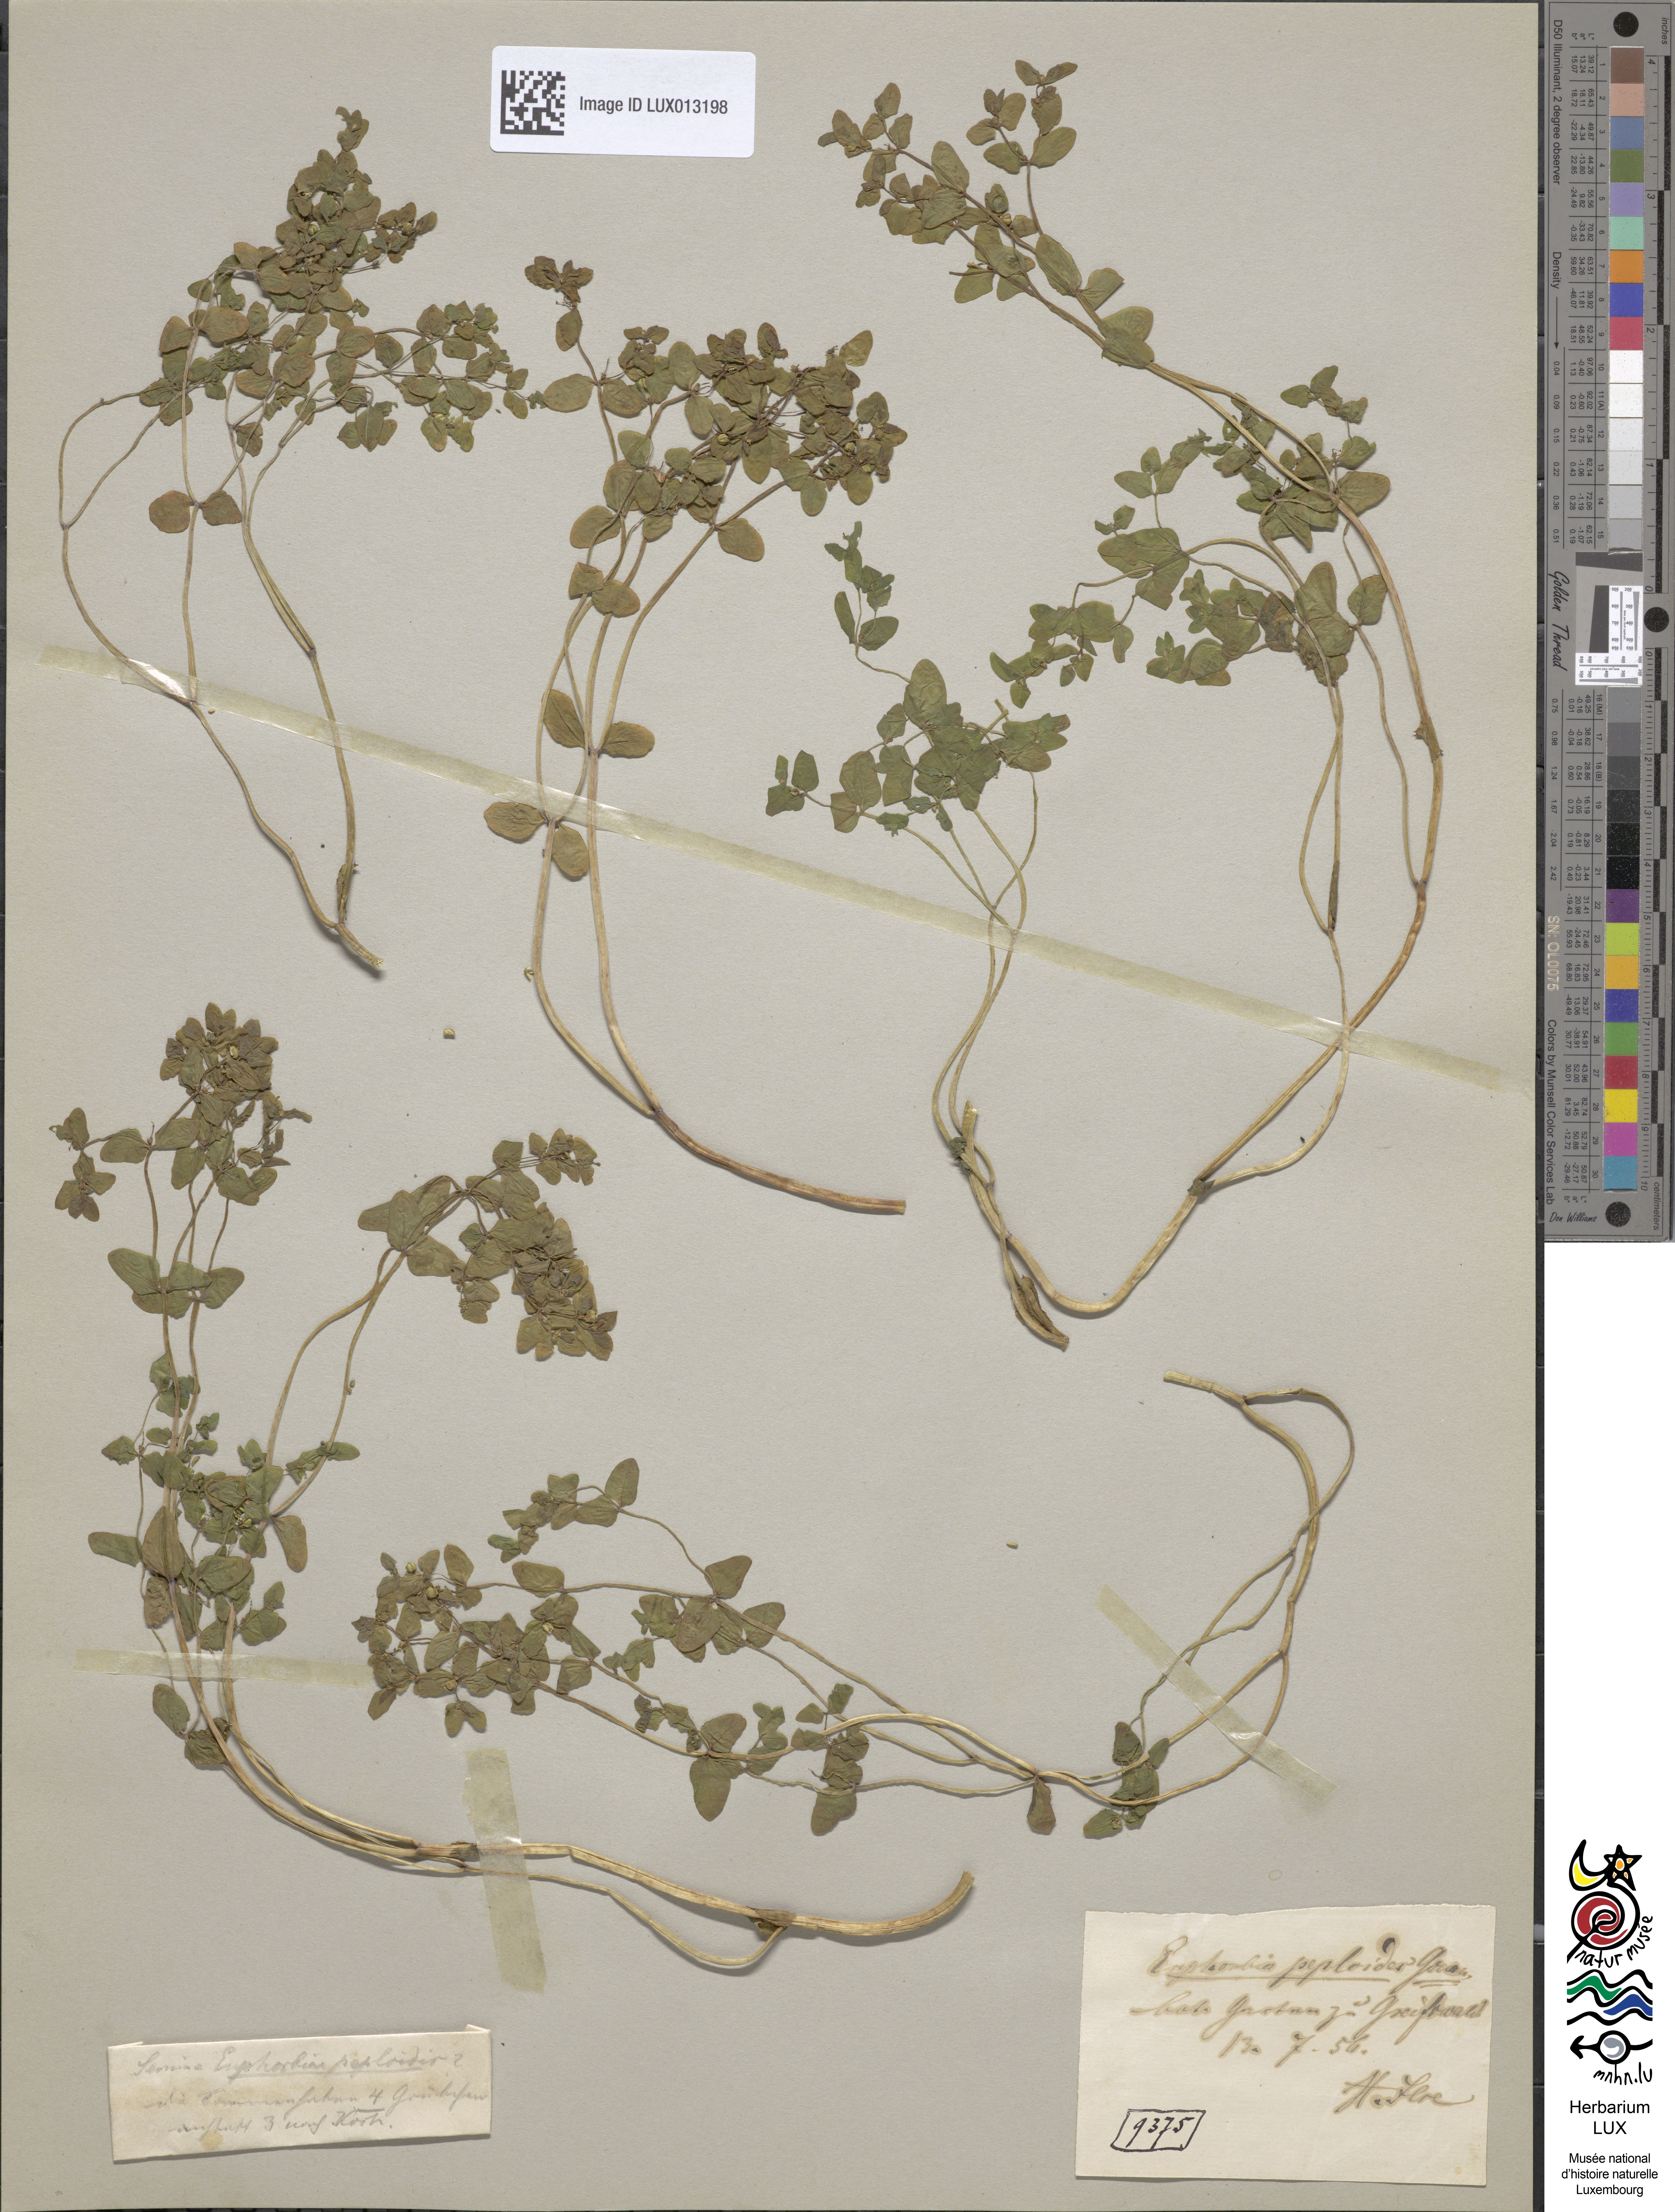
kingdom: Plantae
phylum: Tracheophyta
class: Magnoliopsida
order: Malpighiales
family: Euphorbiaceae
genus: Euphorbia
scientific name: Euphorbia peplus
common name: Petty spurge
